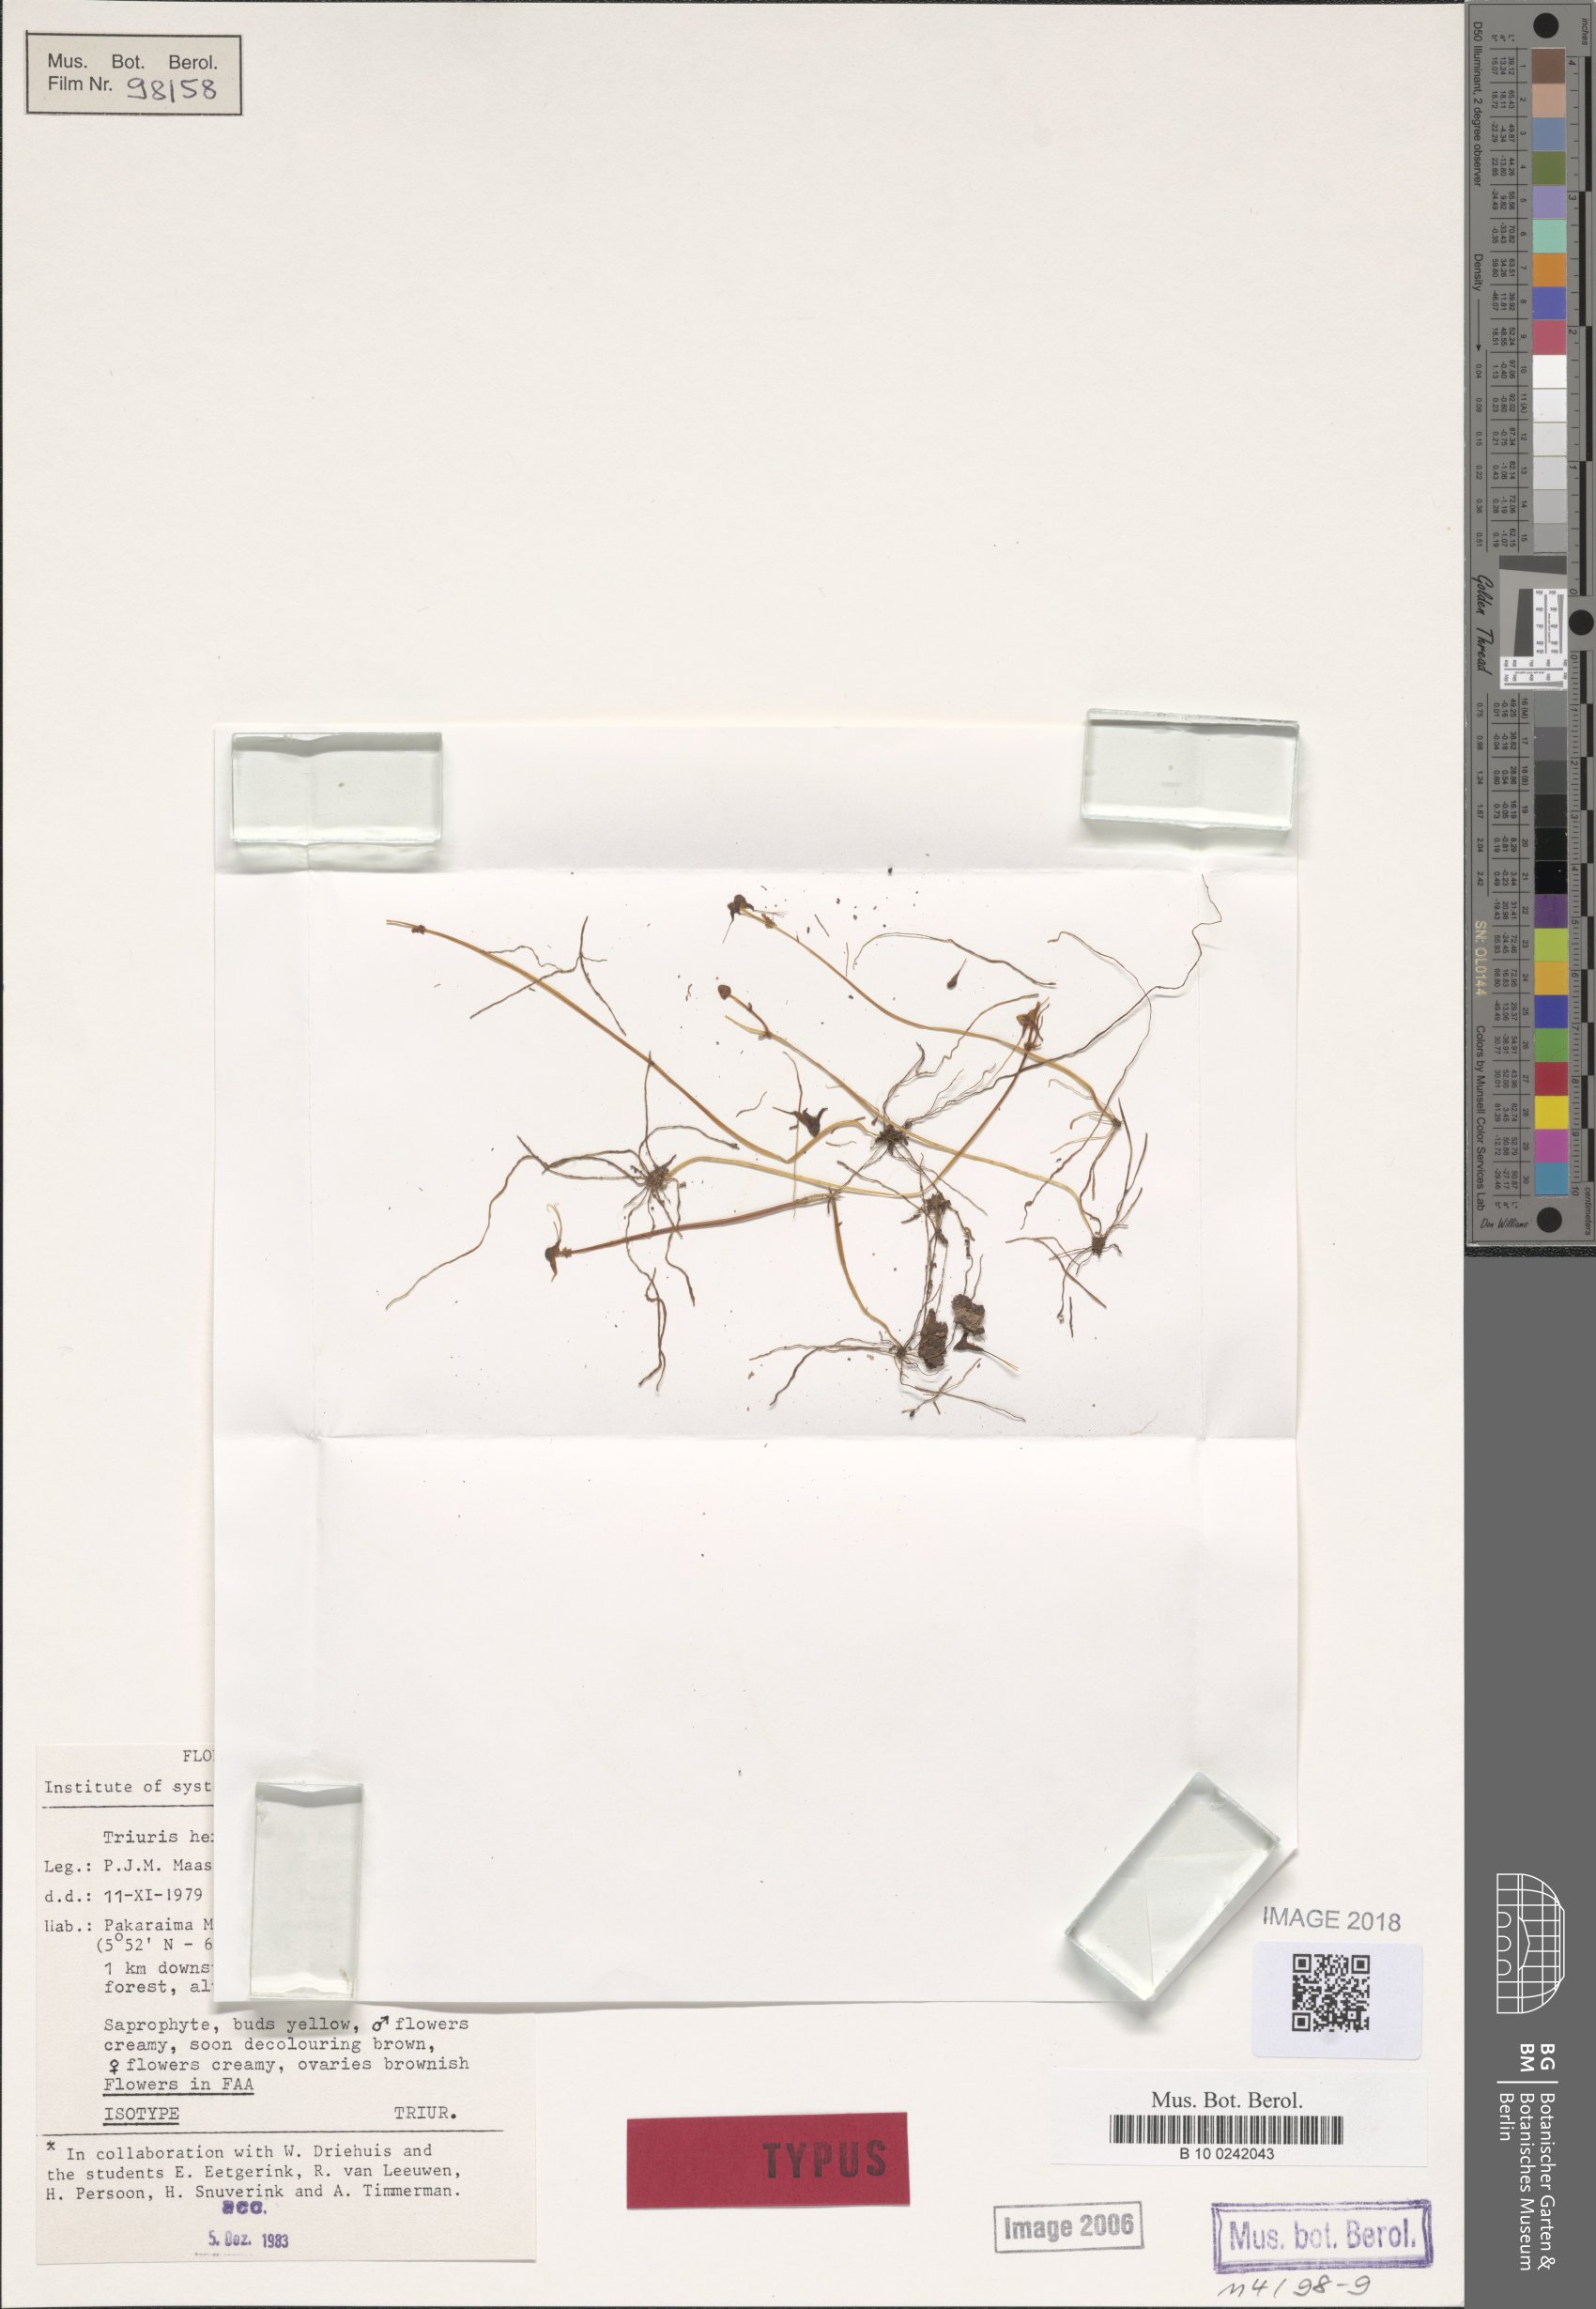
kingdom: Plantae
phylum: Tracheophyta
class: Liliopsida
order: Pandanales
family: Triuridaceae
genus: Triuris
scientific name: Triuris hexophthalma
